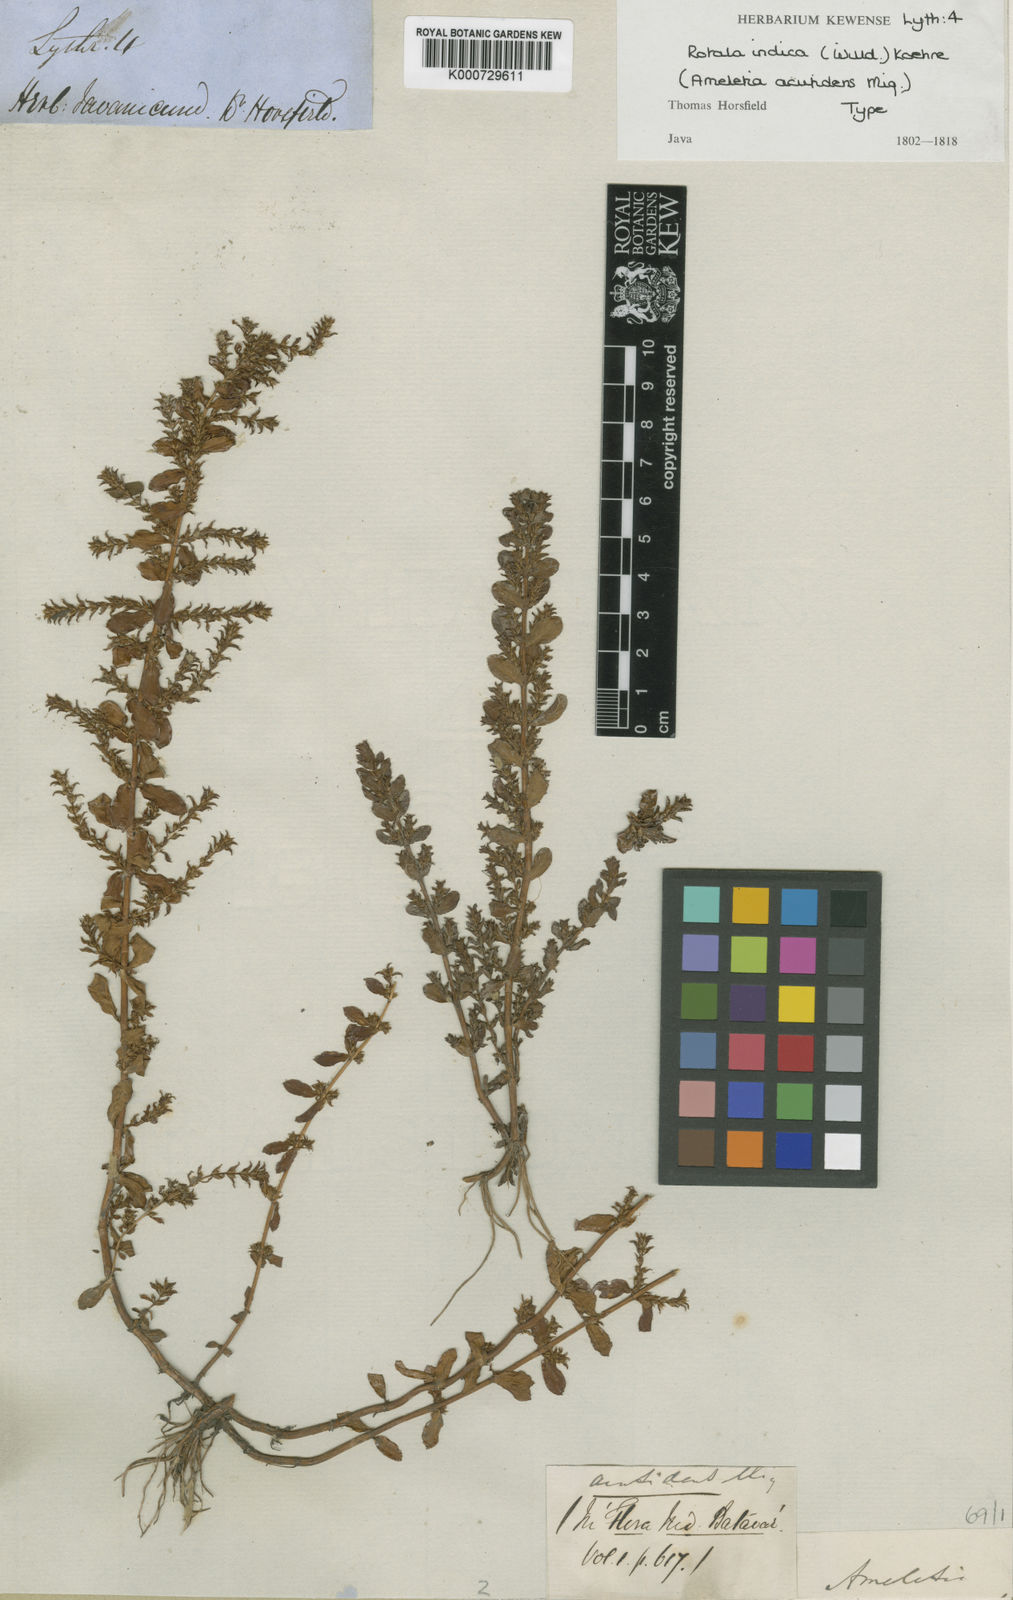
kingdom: Plantae
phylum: Tracheophyta
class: Magnoliopsida
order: Myrtales
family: Lythraceae
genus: Rotala
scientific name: Rotala indica
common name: Indian toothcup
